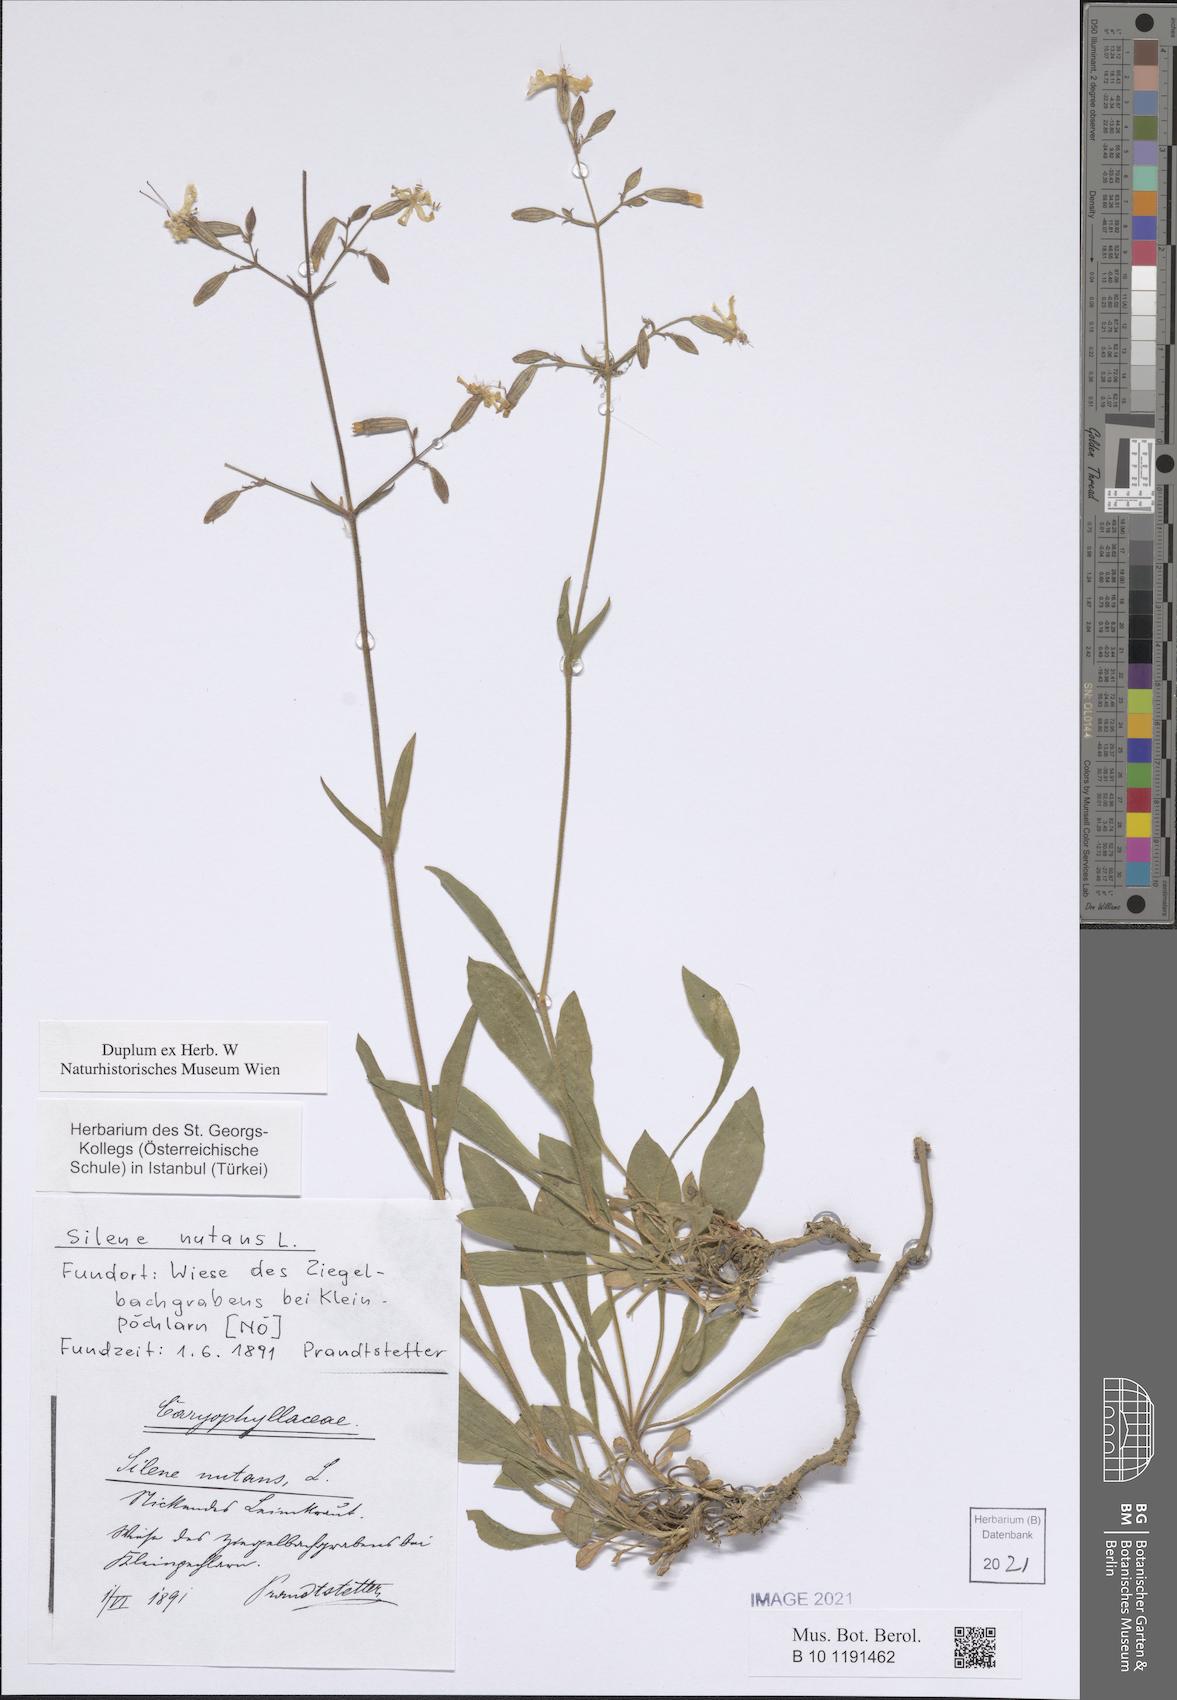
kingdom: Plantae
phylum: Tracheophyta
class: Magnoliopsida
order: Caryophyllales
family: Caryophyllaceae
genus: Silene
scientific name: Silene nutans
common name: Nottingham catchfly
